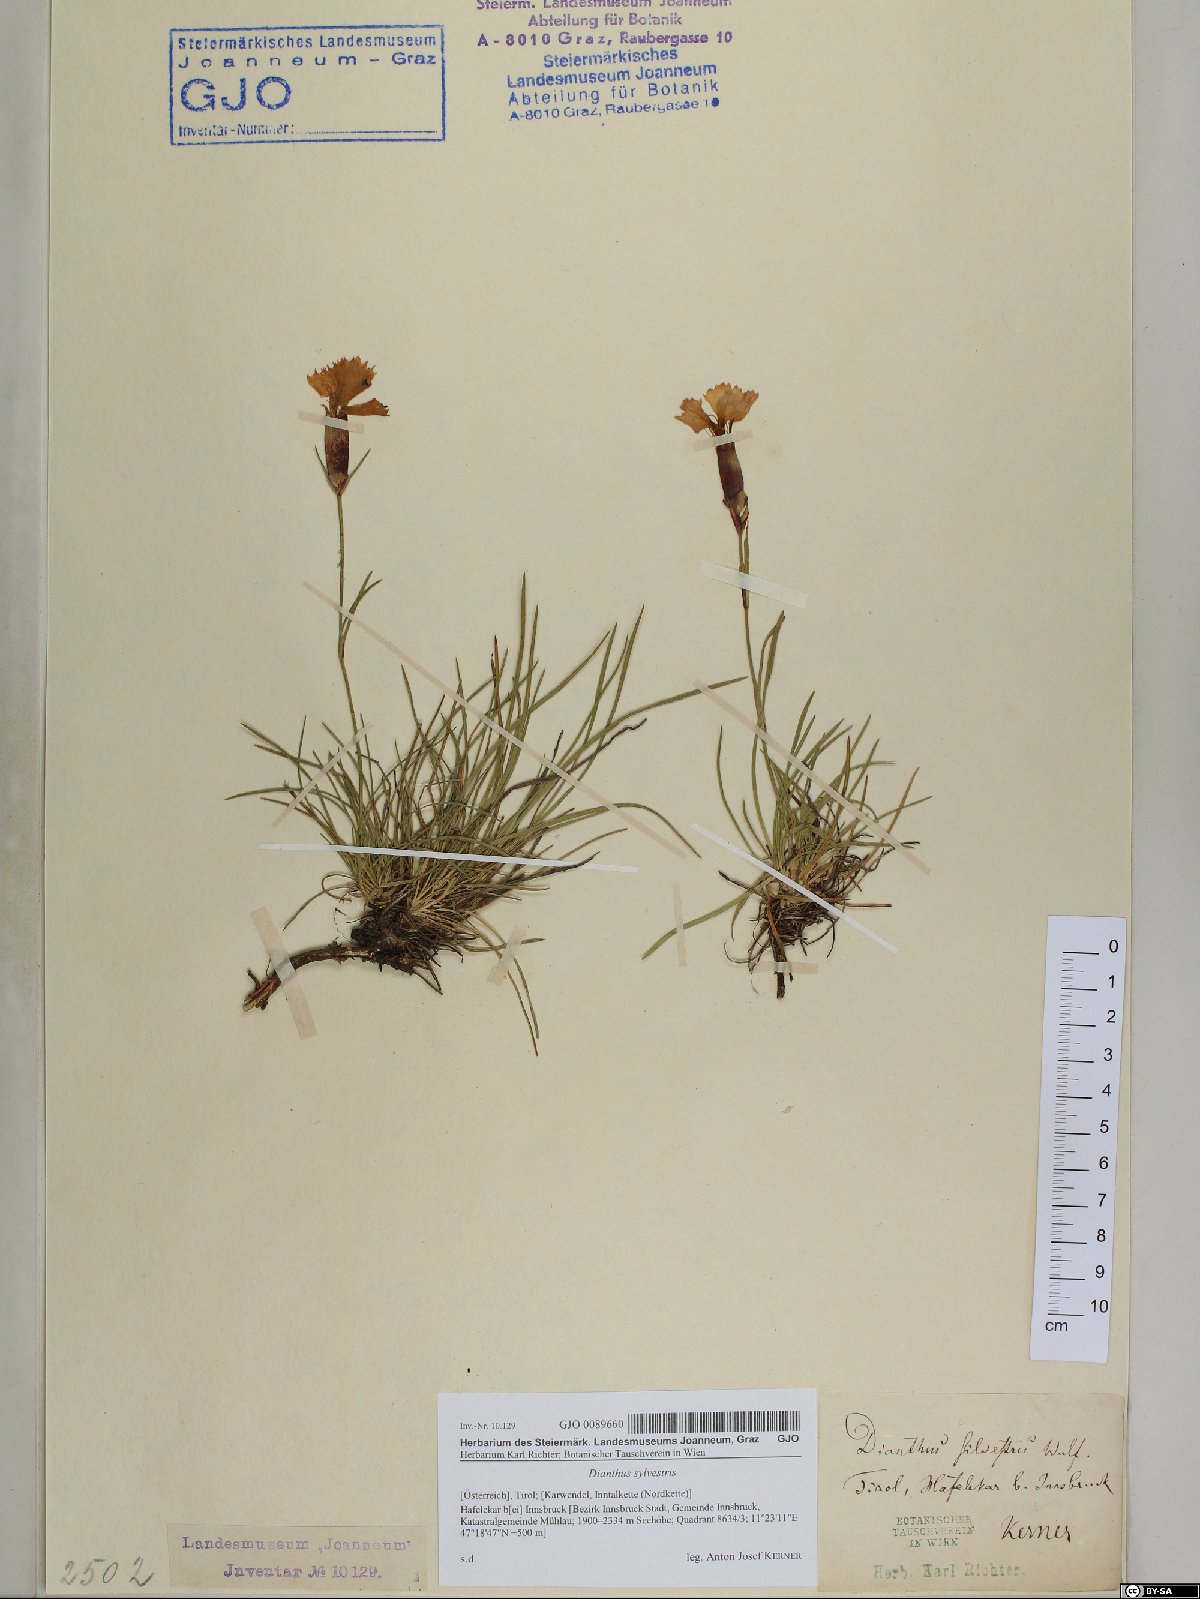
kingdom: Plantae
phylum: Tracheophyta
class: Magnoliopsida
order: Caryophyllales
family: Caryophyllaceae
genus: Dianthus
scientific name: Dianthus sylvestris
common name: Wood pink
